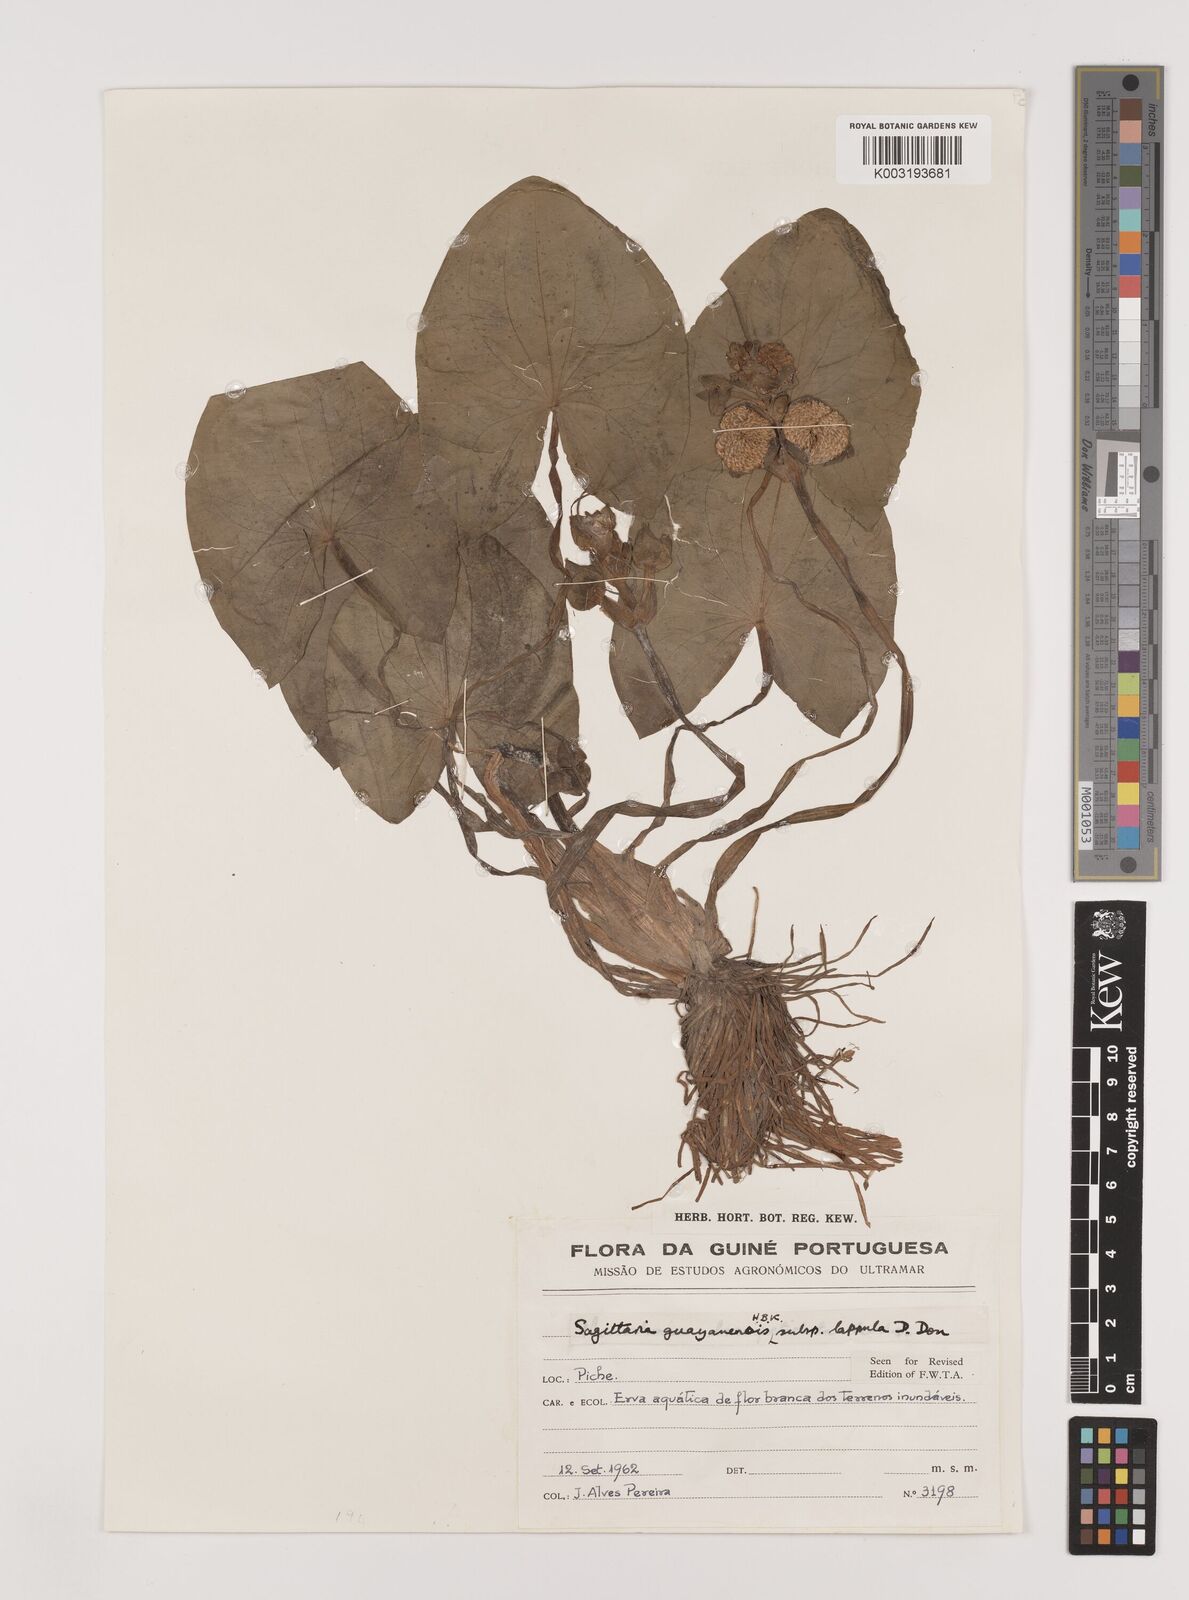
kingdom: Plantae
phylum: Tracheophyta
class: Liliopsida
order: Alismatales
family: Alismataceae
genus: Sagittaria
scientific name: Sagittaria guayanensis
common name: Guyanese arrowhead
